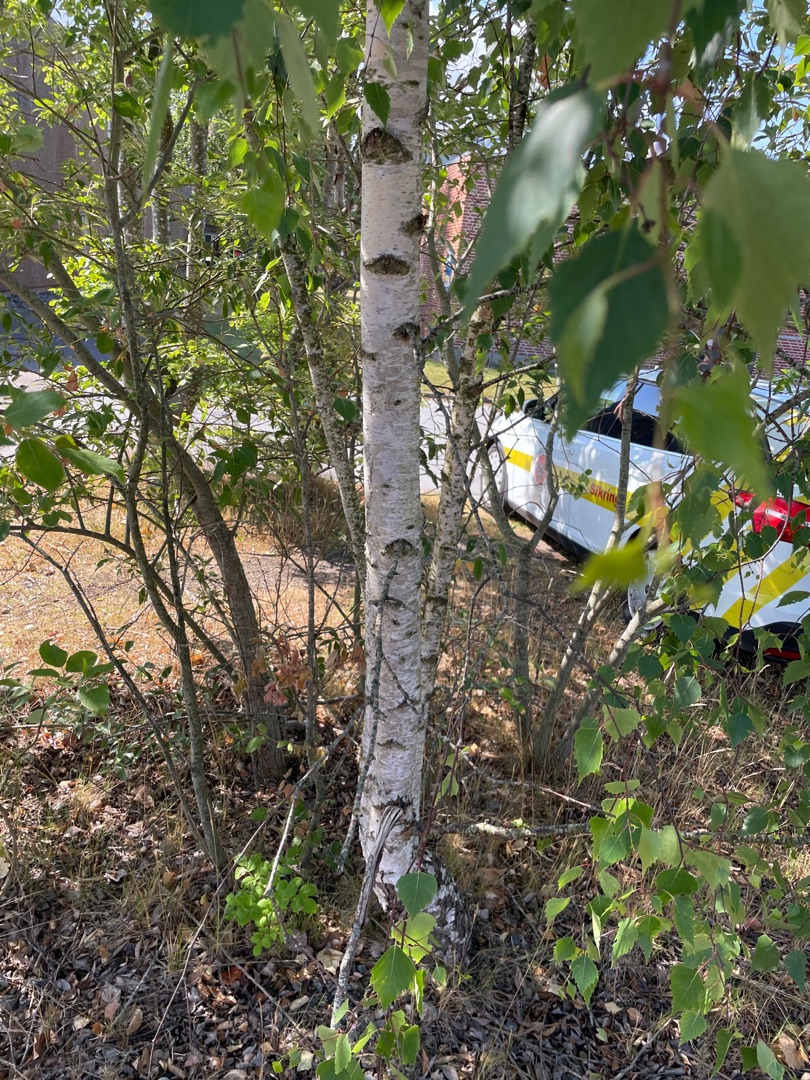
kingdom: Plantae
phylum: Tracheophyta
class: Magnoliopsida
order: Fagales
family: Betulaceae
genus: Betula
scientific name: Betula pendula
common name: Vorte-birk
